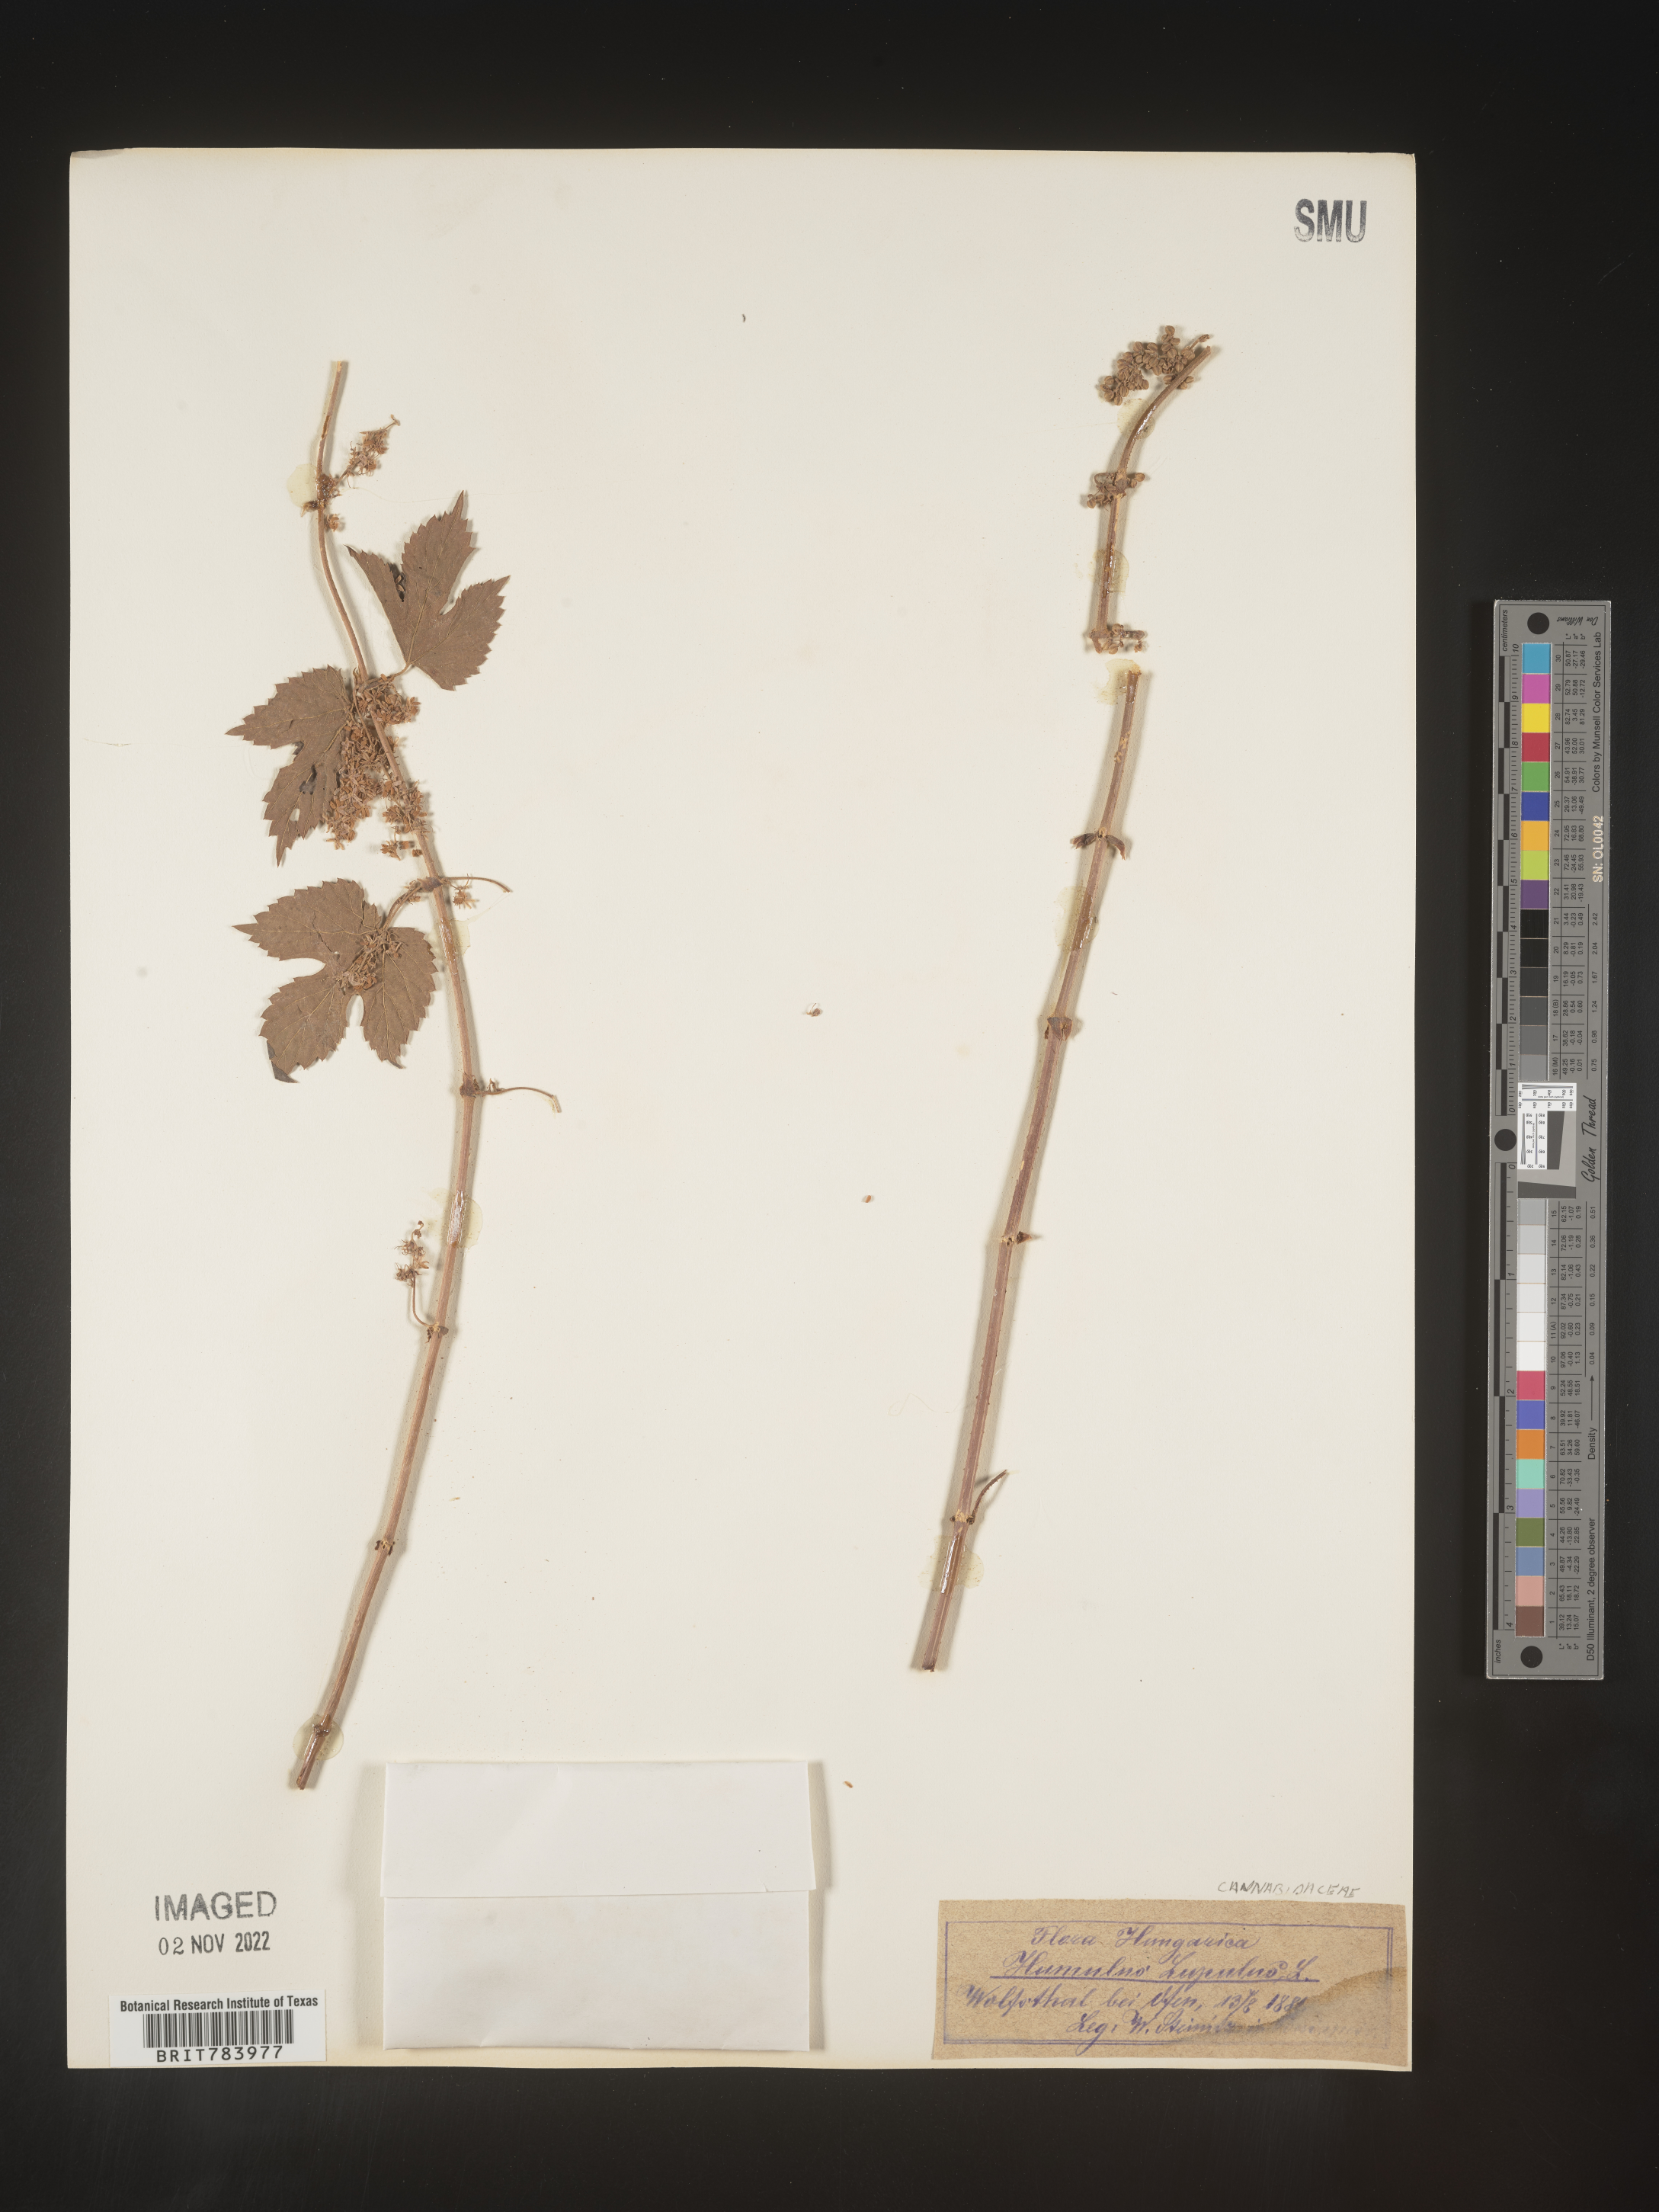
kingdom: Plantae
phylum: Tracheophyta
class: Magnoliopsida
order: Rosales
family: Cannabaceae
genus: Humulus
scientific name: Humulus
